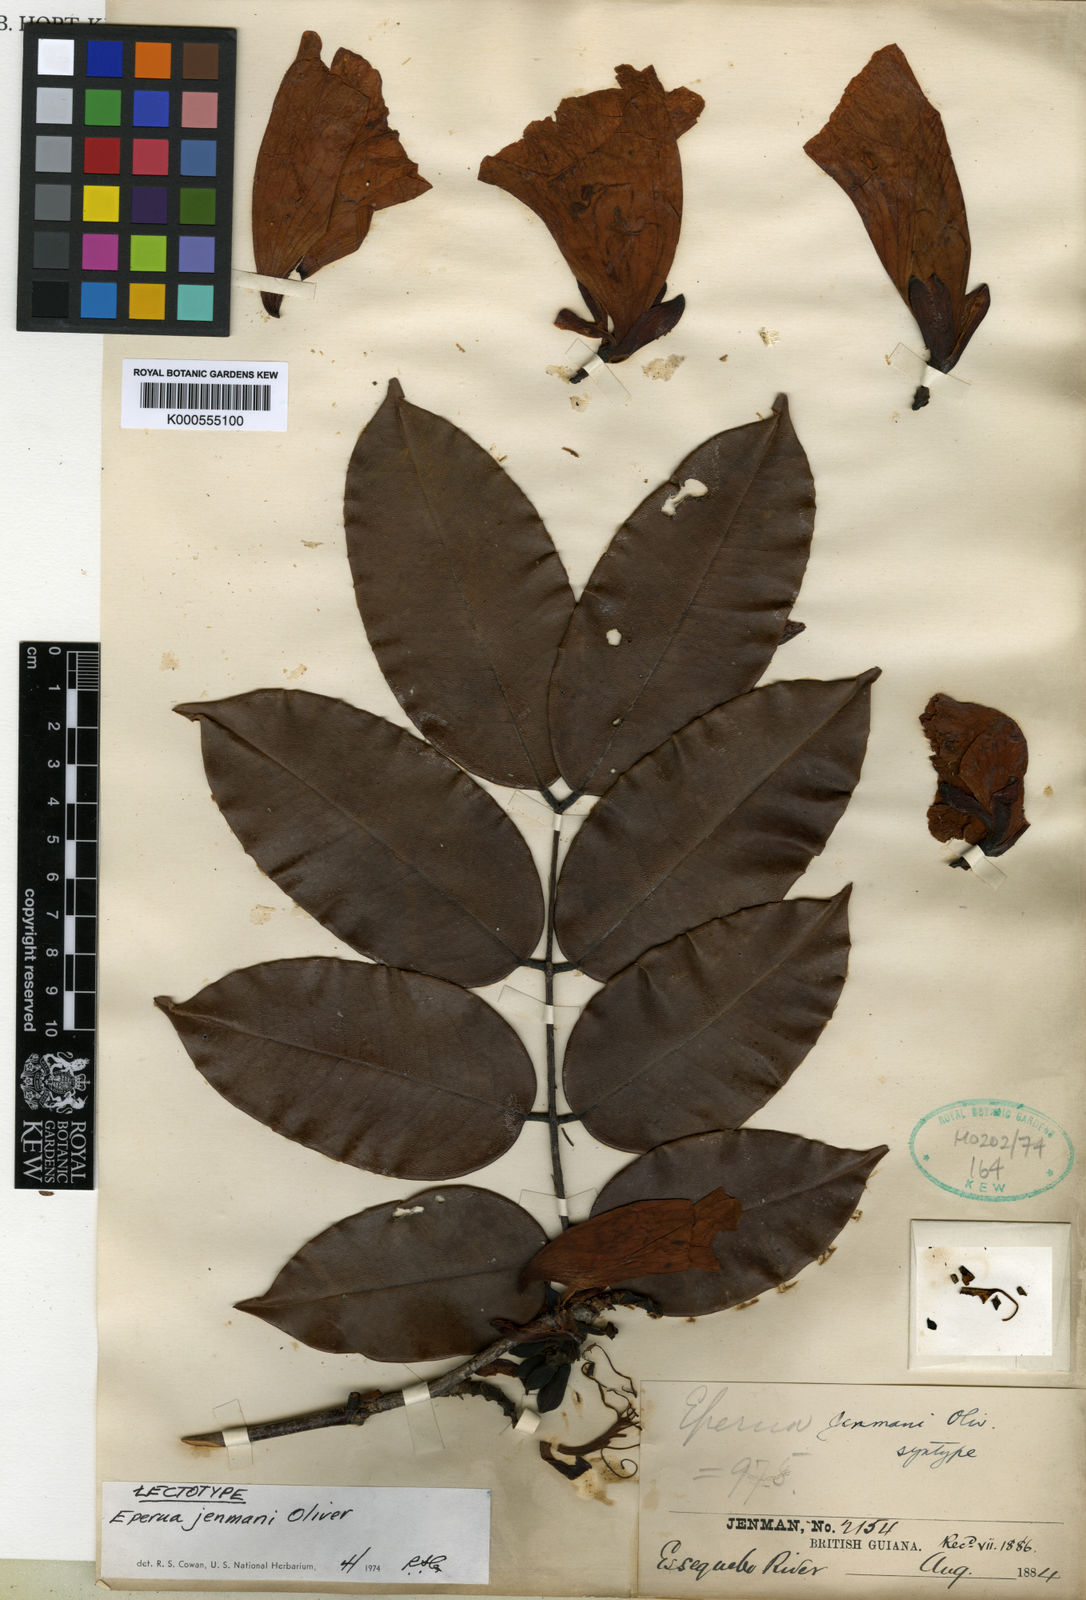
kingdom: Plantae
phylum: Tracheophyta
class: Magnoliopsida
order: Fabales
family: Fabaceae
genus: Eperua
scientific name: Eperua jenmanii
